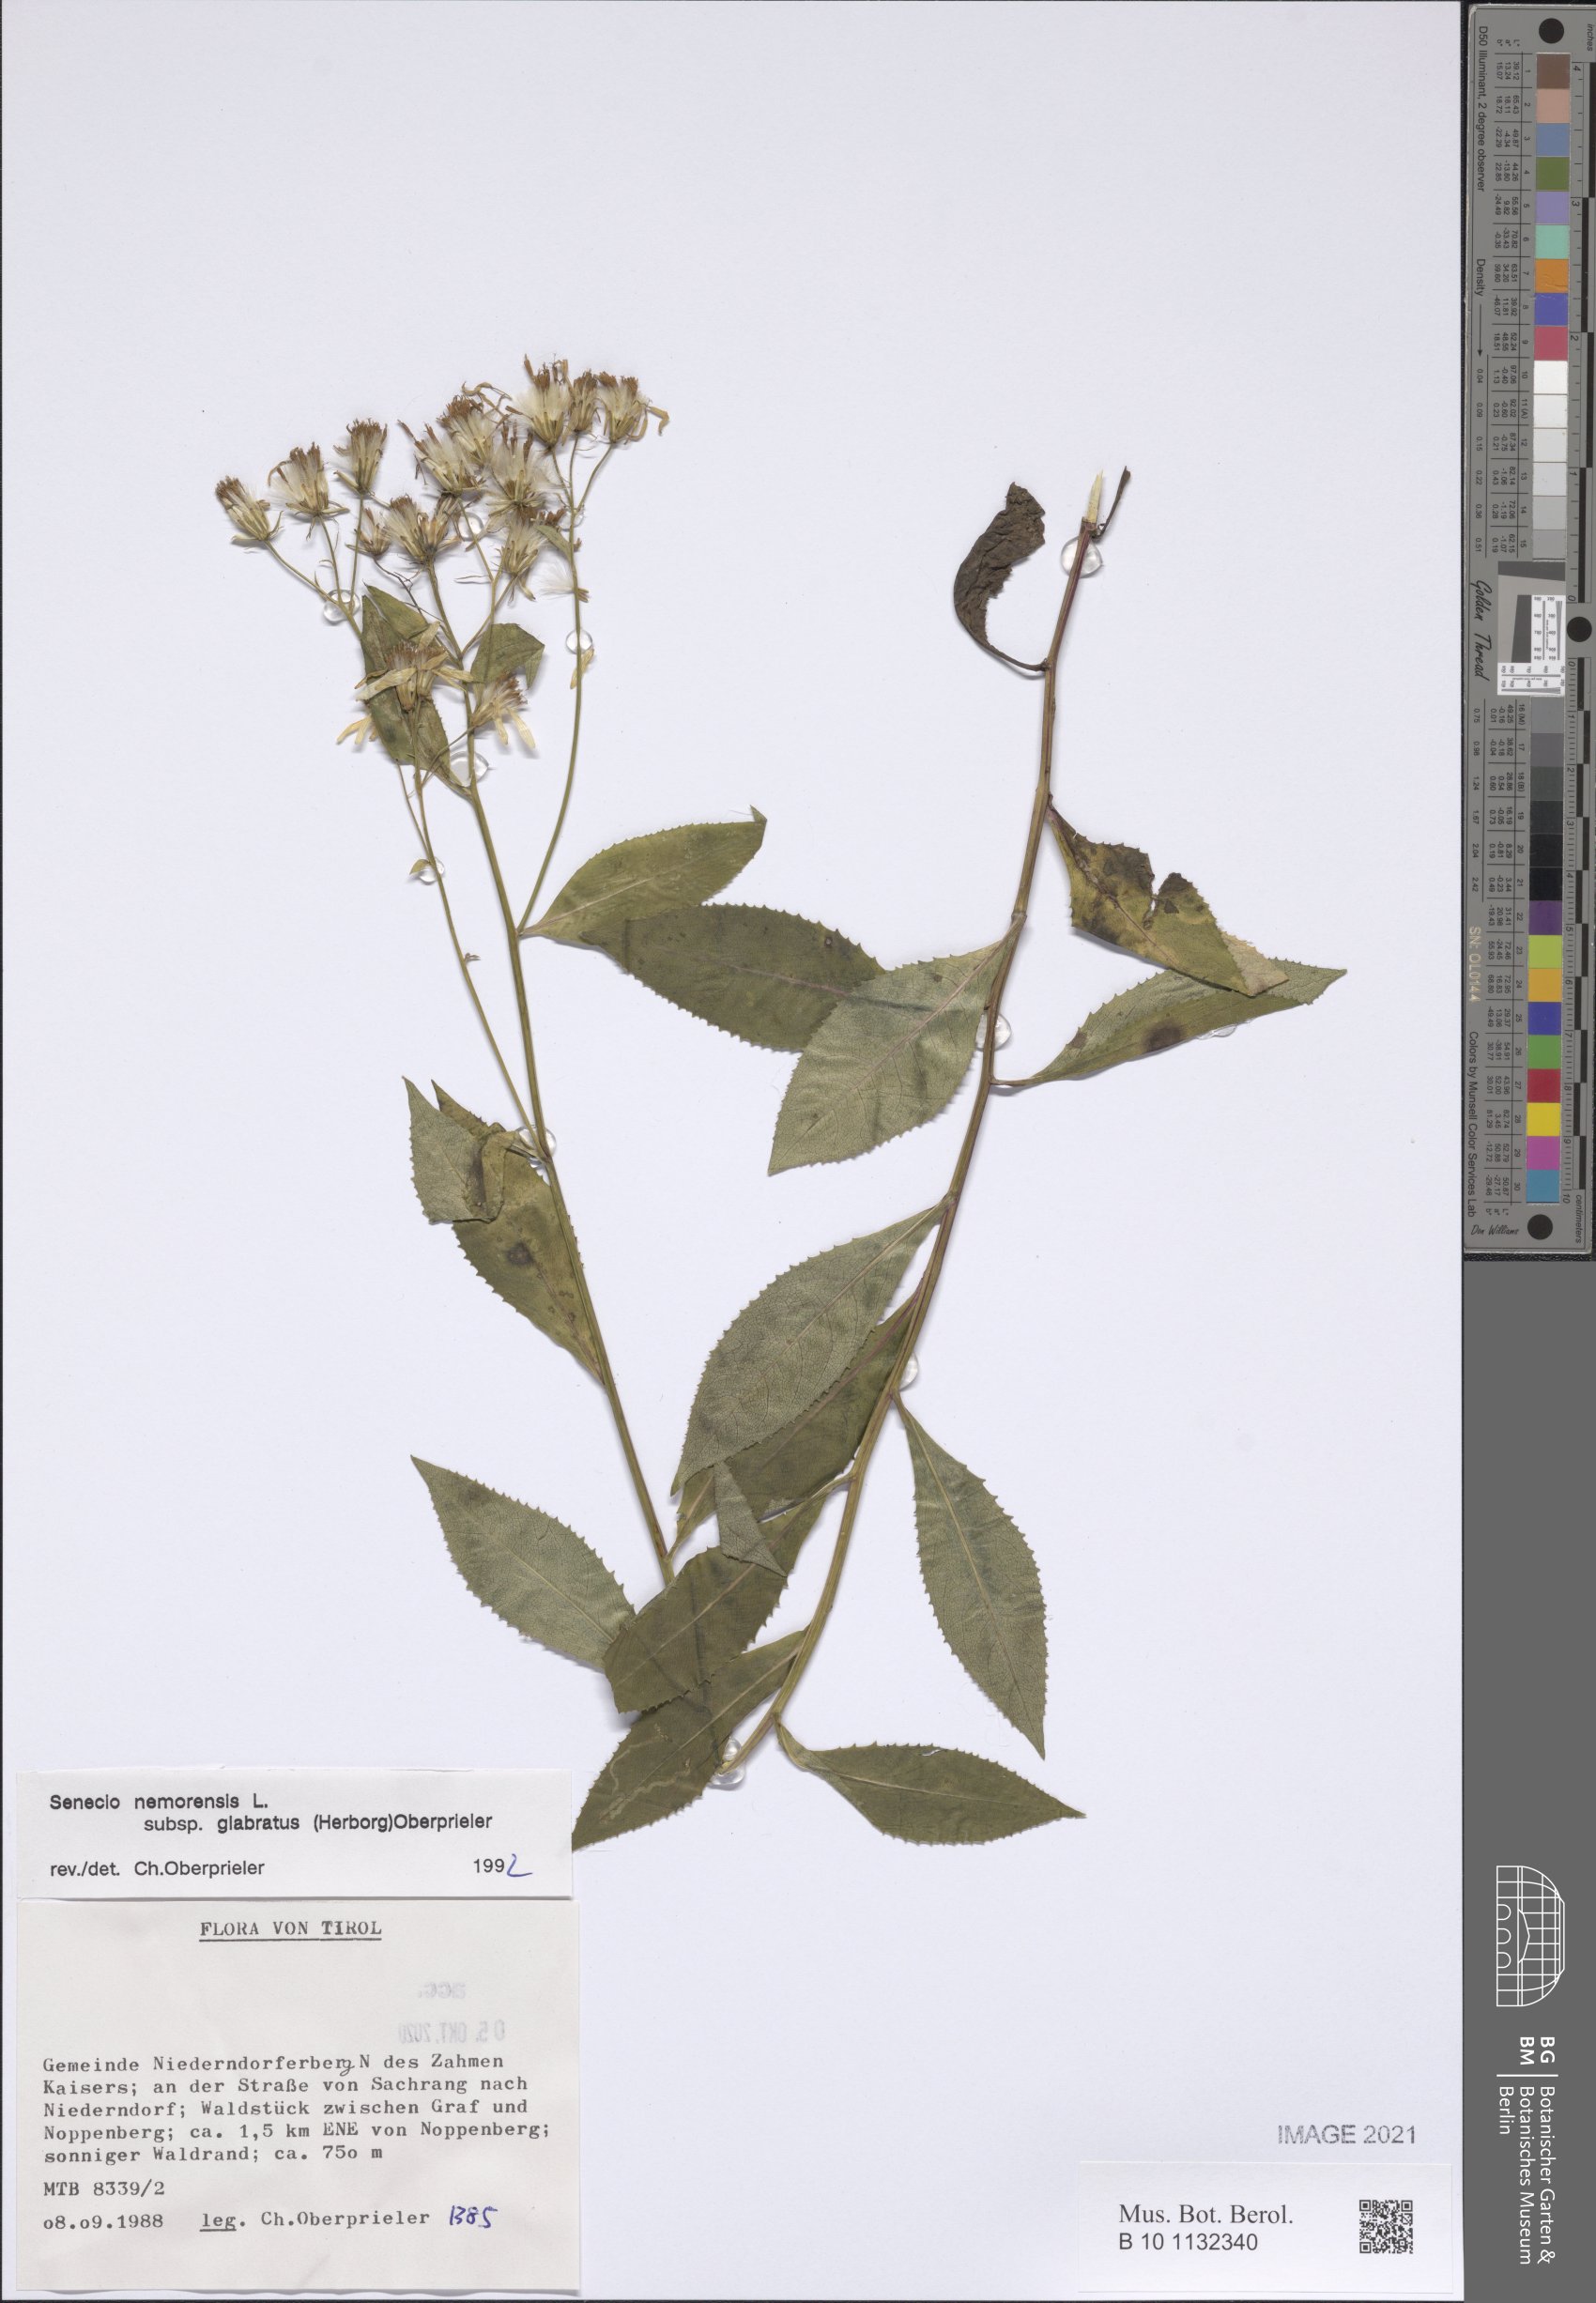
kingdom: Plantae
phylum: Tracheophyta
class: Magnoliopsida
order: Asterales
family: Asteraceae
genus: Senecio
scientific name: Senecio germanicus
